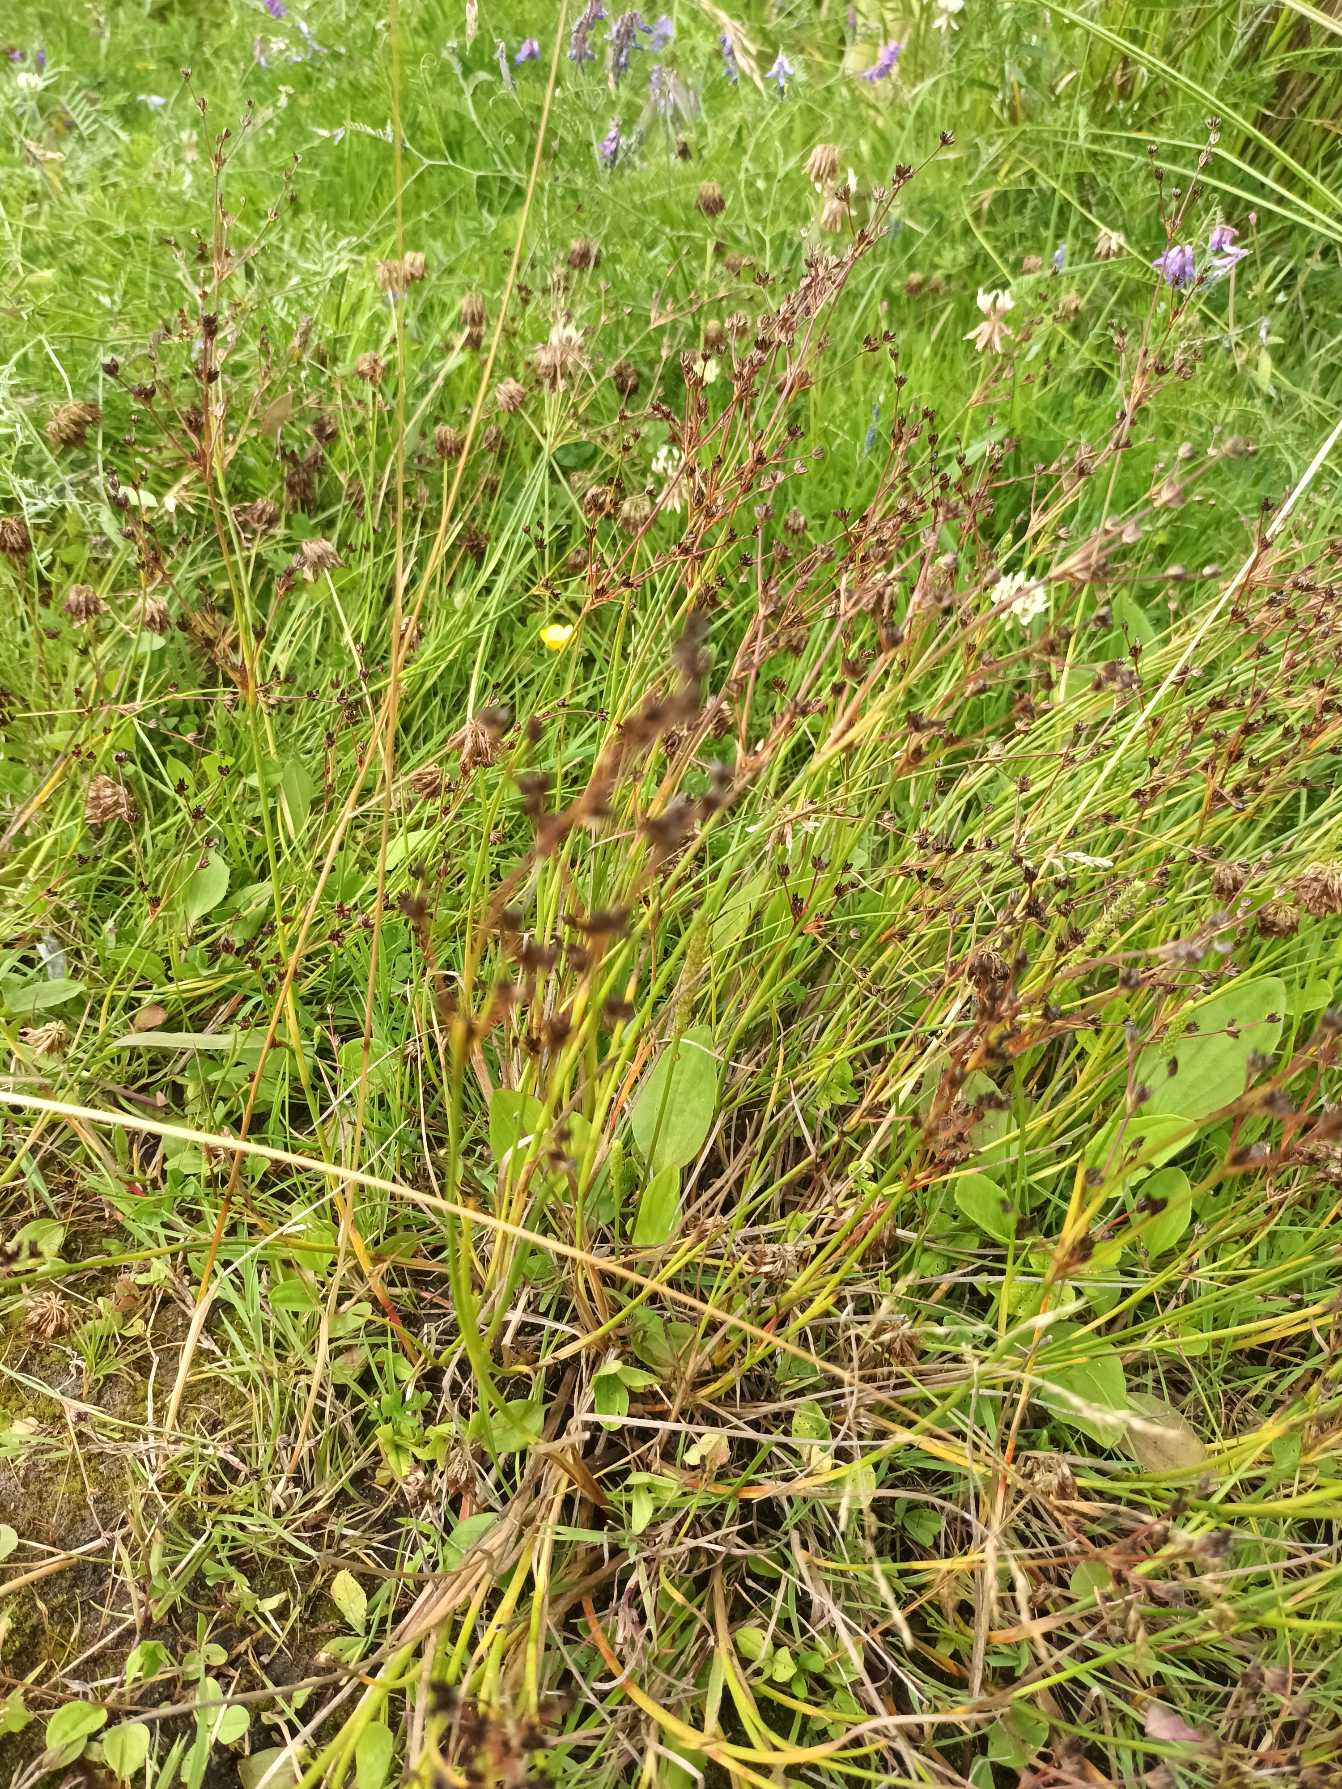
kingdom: Plantae
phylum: Tracheophyta
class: Liliopsida
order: Poales
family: Juncaceae
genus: Juncus
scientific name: Juncus articulatus
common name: Glanskapslet siv
